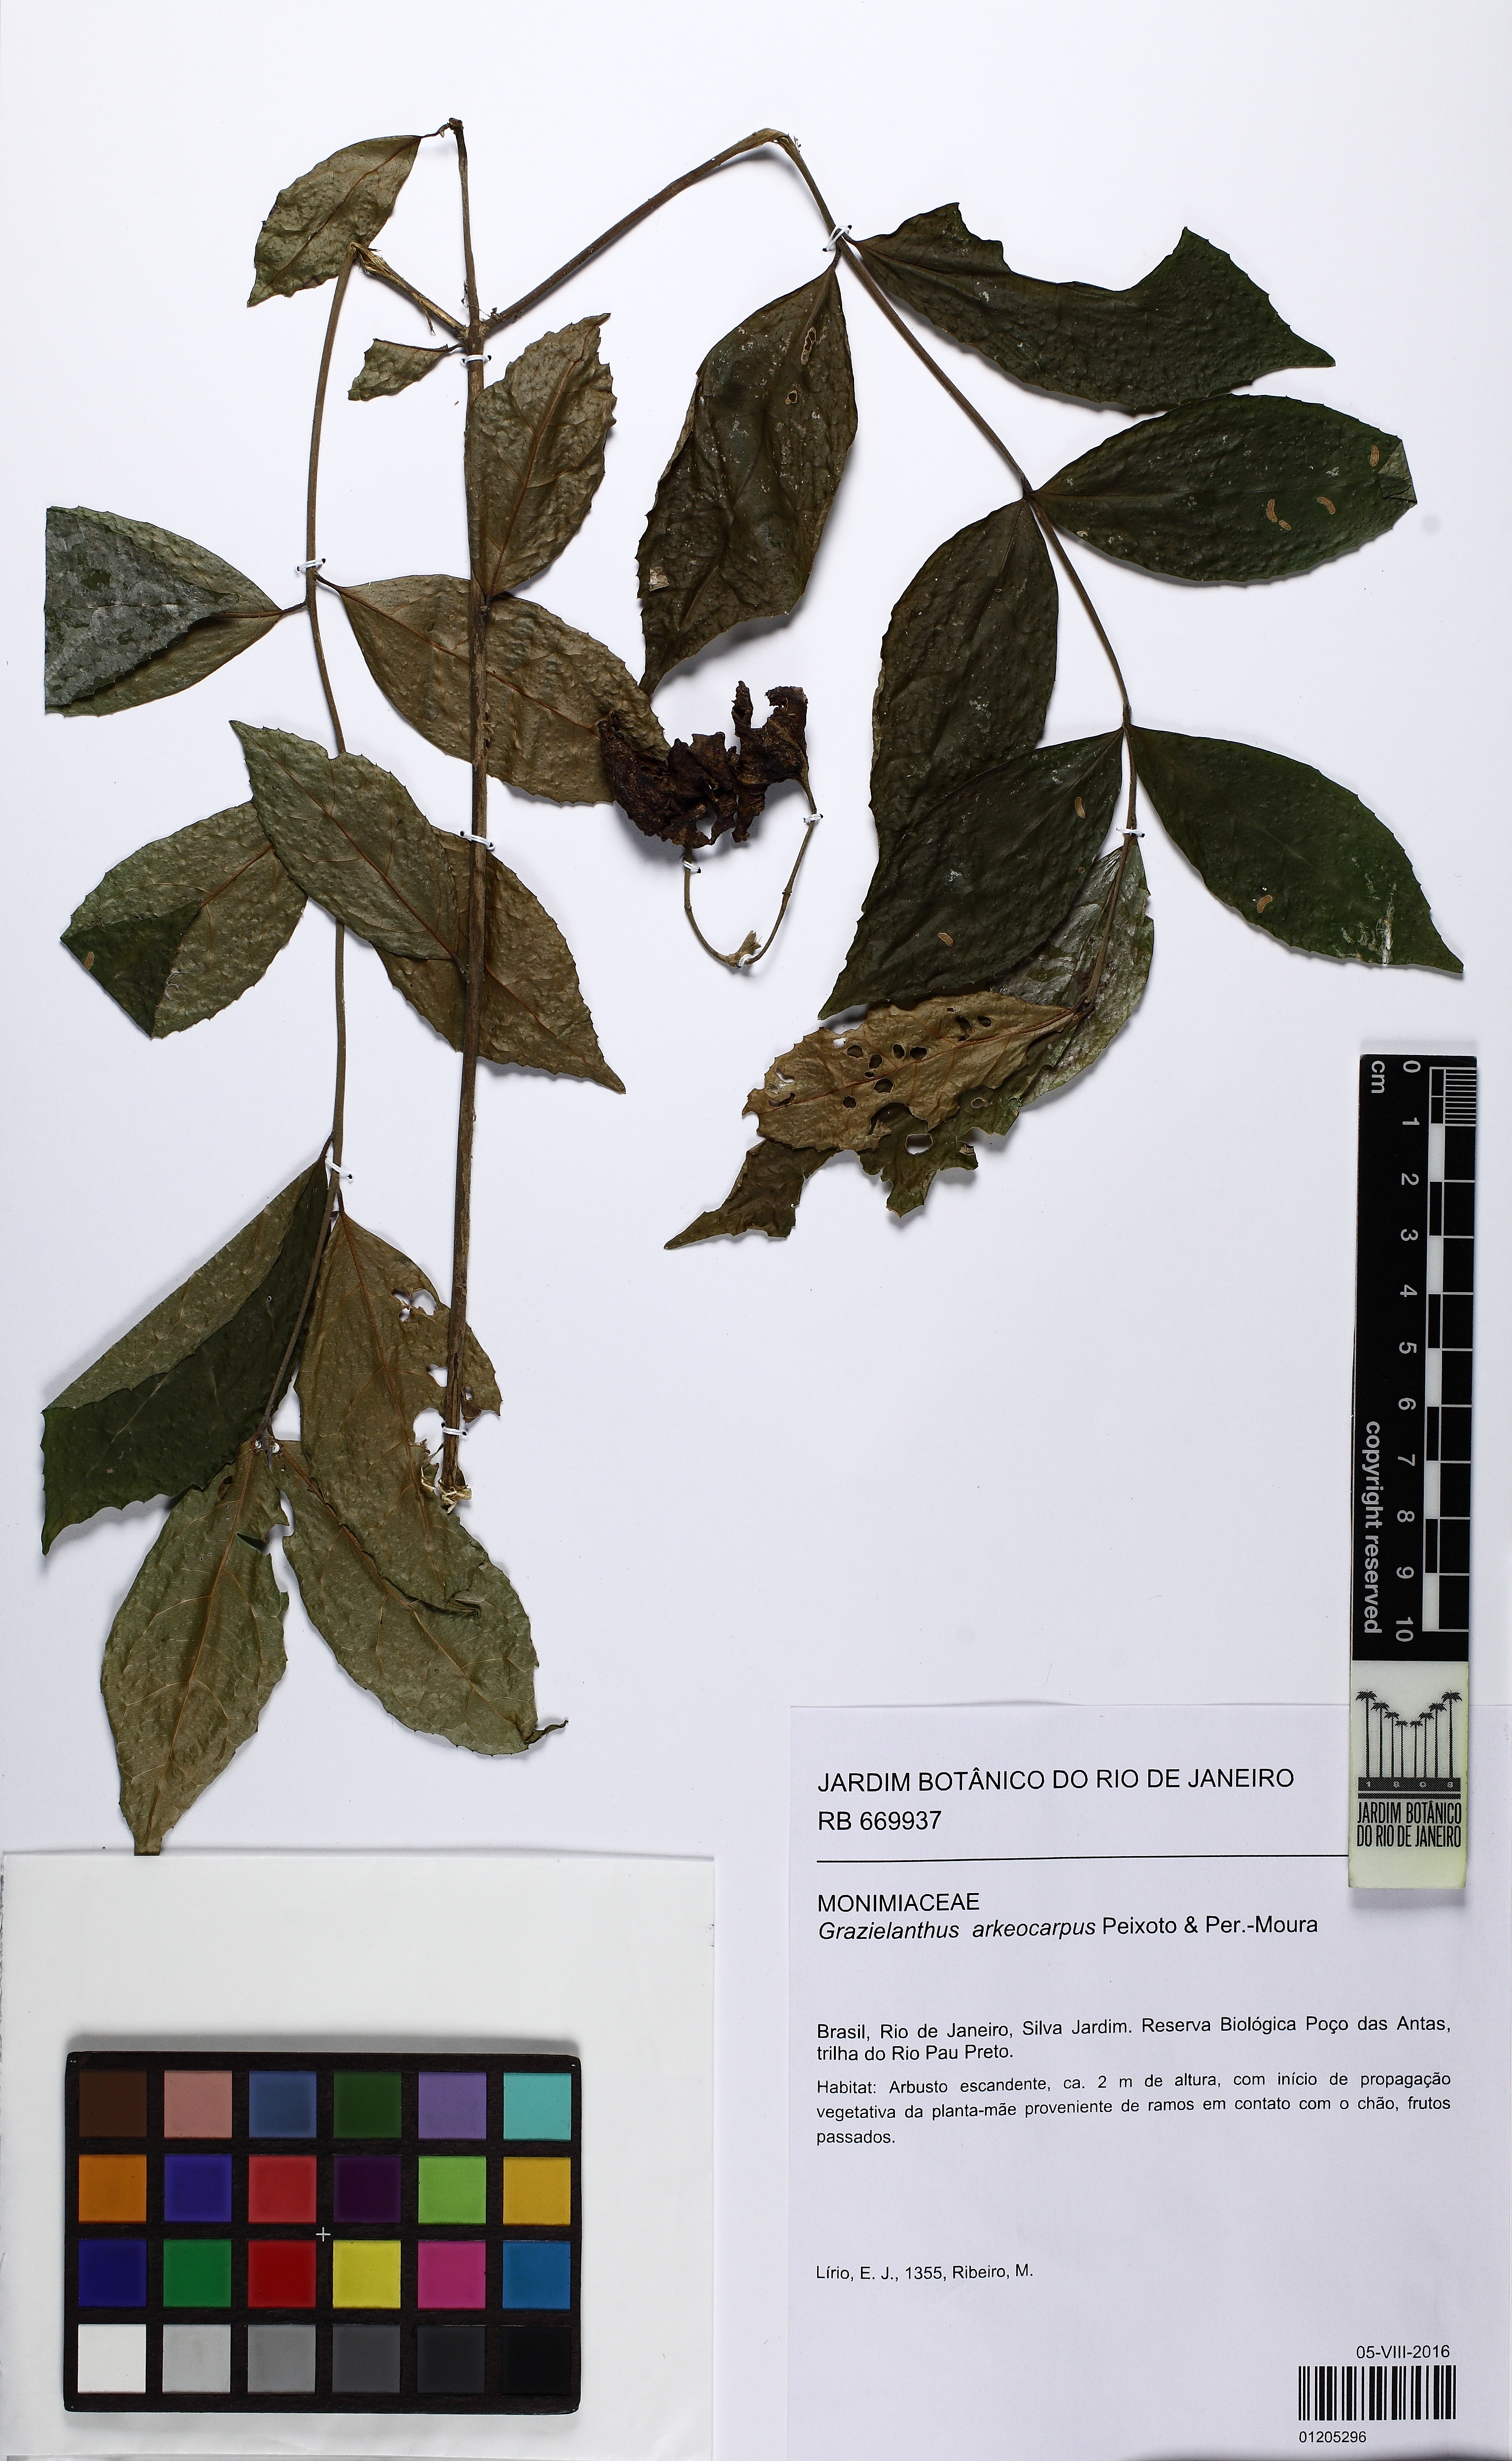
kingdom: Plantae
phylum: Tracheophyta
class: Magnoliopsida
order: Laurales
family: Monimiaceae
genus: Grazielanthus
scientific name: Grazielanthus arkeocarpus
